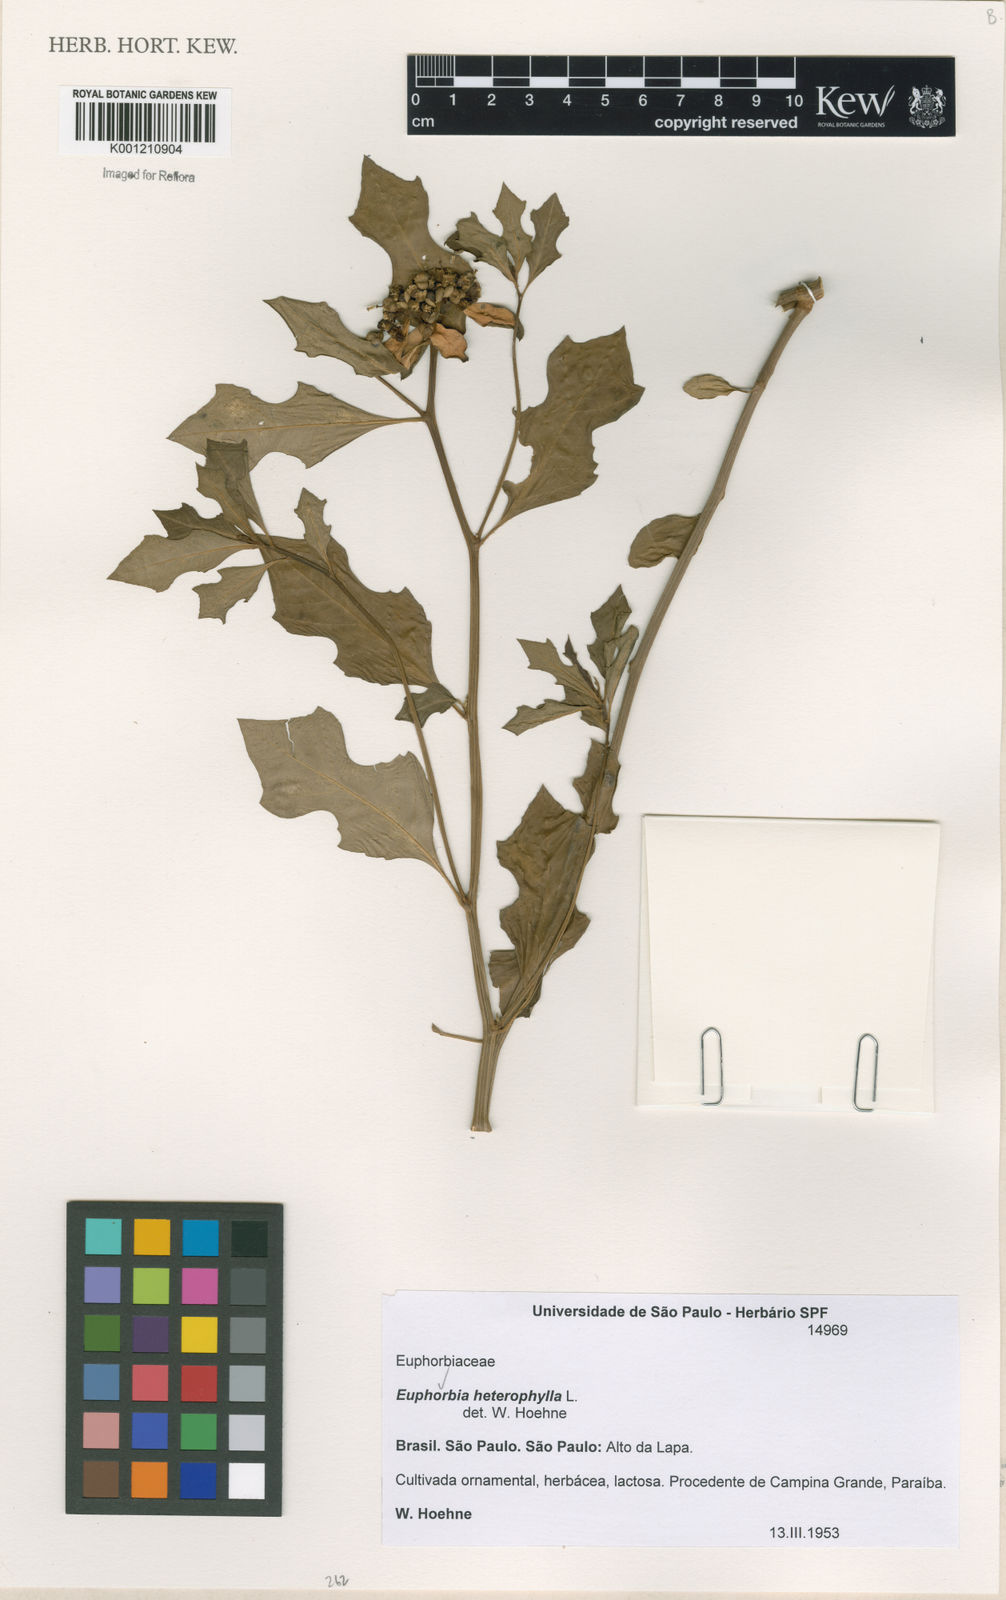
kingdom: Plantae
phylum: Tracheophyta
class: Magnoliopsida
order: Malpighiales
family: Euphorbiaceae
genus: Euphorbia
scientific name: Euphorbia heterophylla
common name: Mexican fireplant
